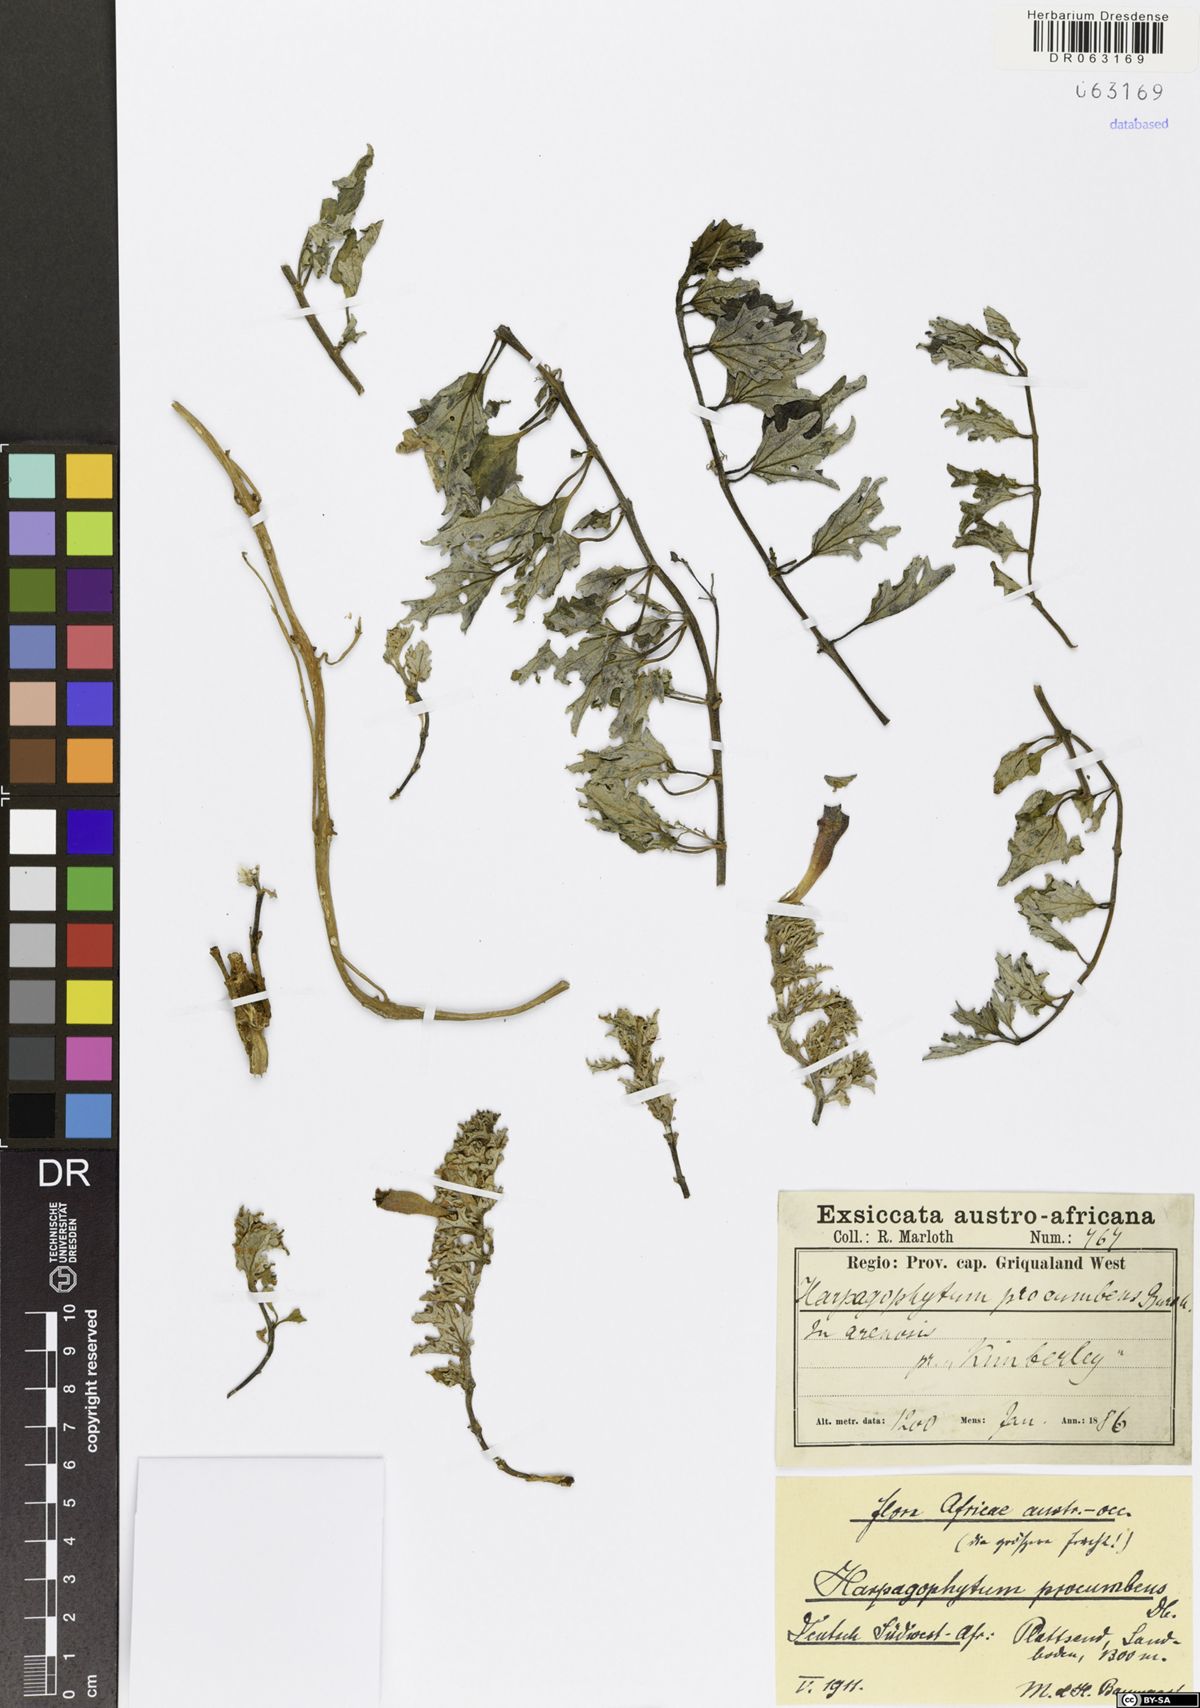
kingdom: Plantae
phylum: Tracheophyta
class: Magnoliopsida
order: Lamiales
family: Pedaliaceae
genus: Harpagophytum
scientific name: Harpagophytum procumbens
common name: Grappleplant
